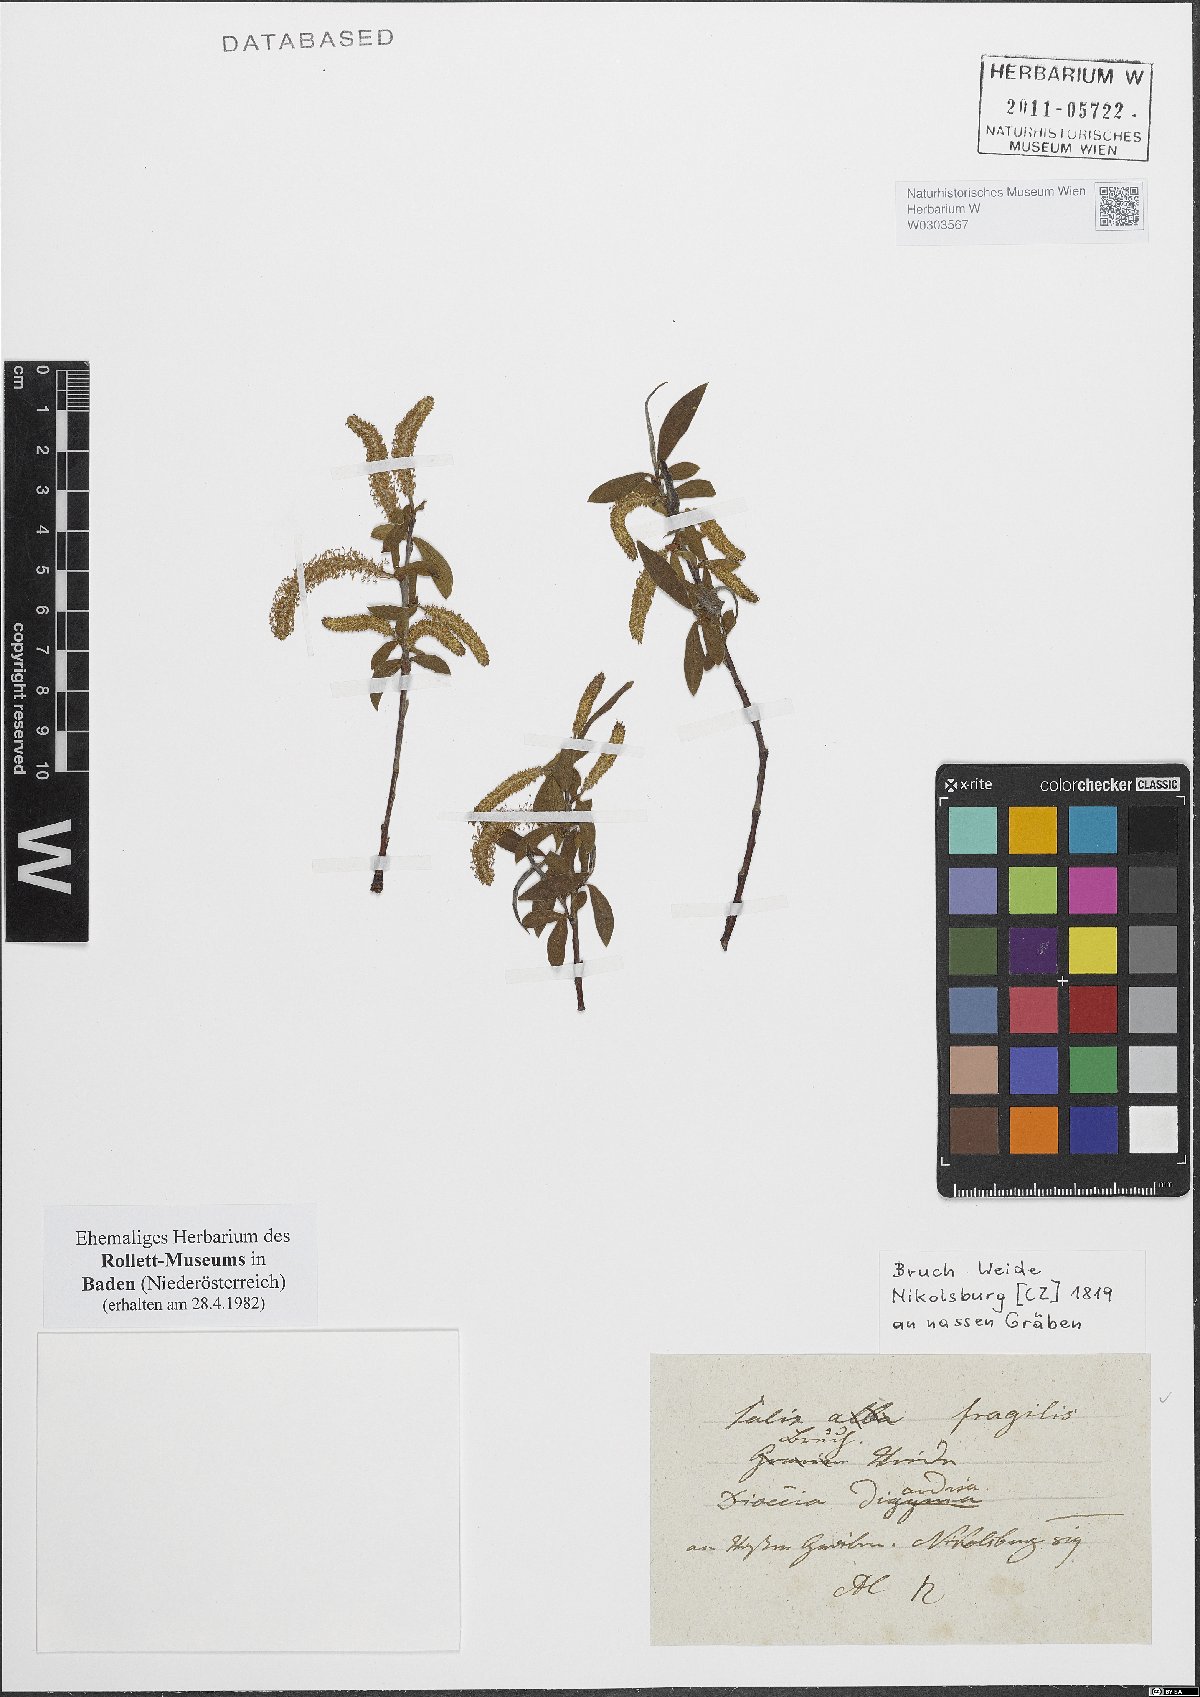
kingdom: Plantae
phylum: Tracheophyta
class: Magnoliopsida
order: Malpighiales
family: Salicaceae
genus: Salix
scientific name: Salix fragilis
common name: Crack willow
